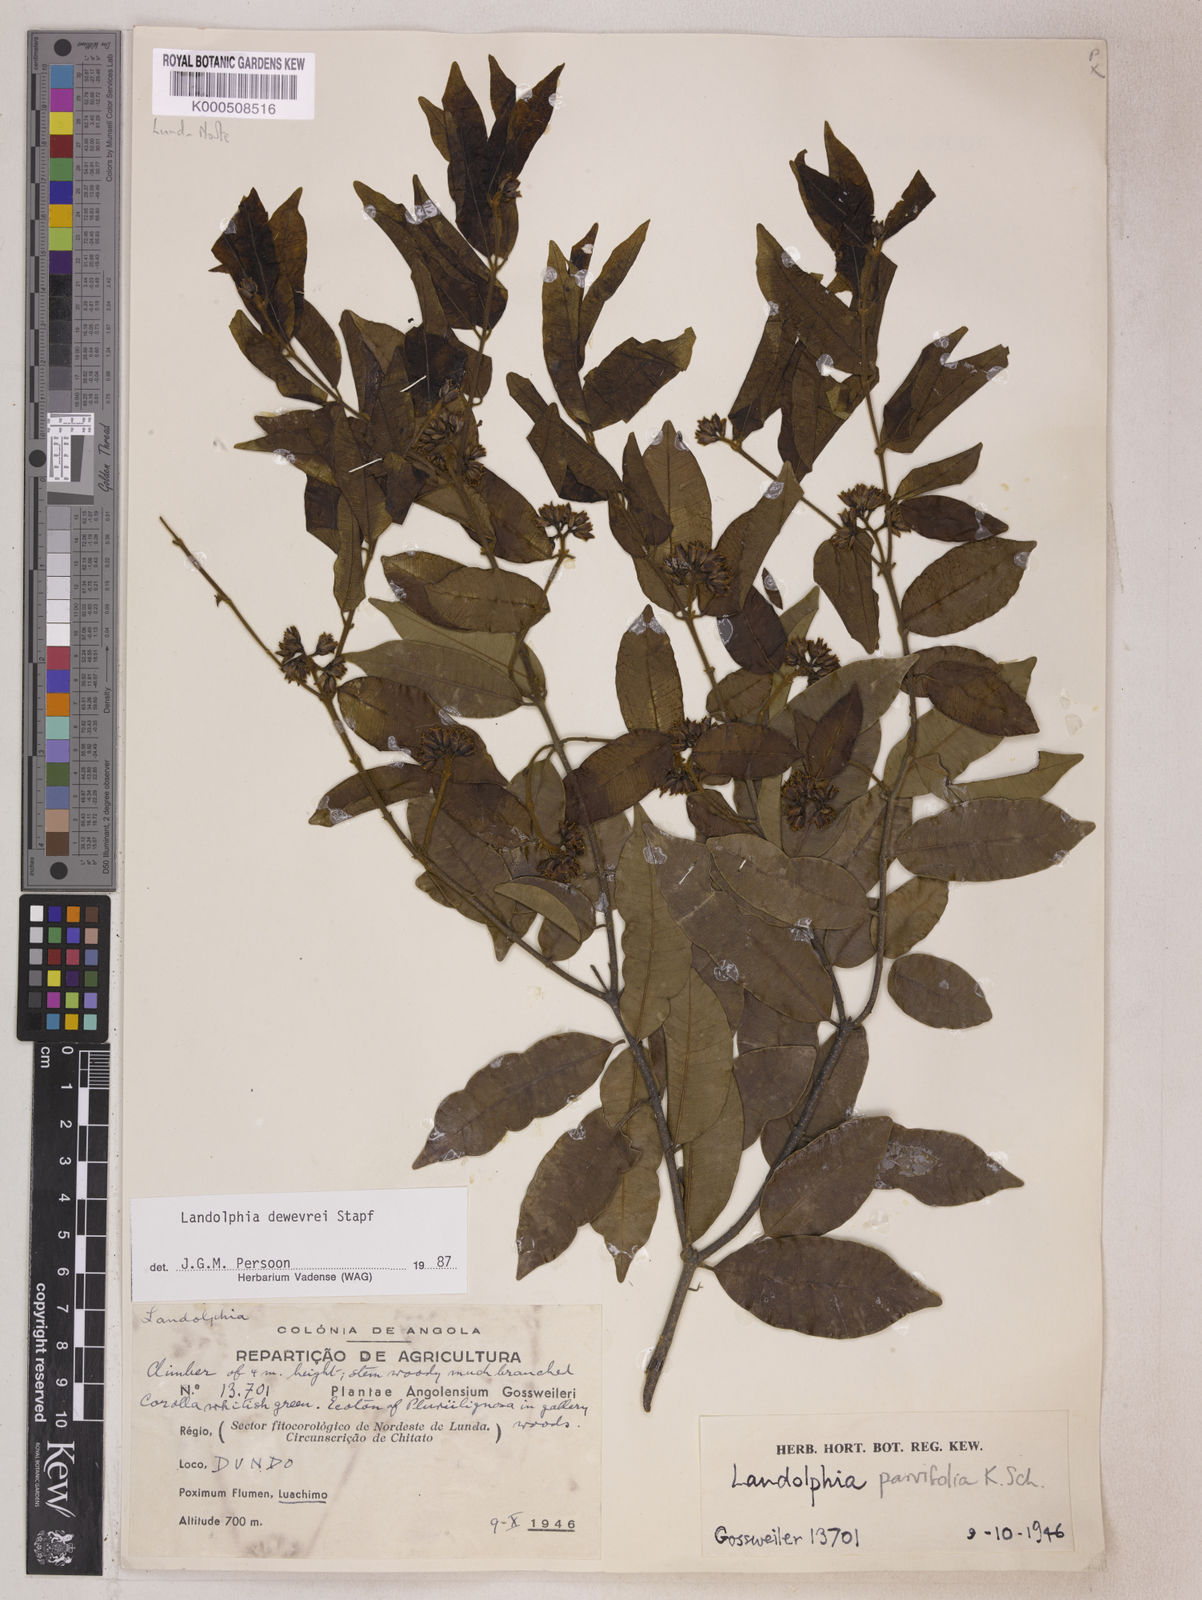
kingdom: Plantae
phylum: Tracheophyta
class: Magnoliopsida
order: Gentianales
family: Apocynaceae
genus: Landolphia
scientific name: Landolphia dewevrei
